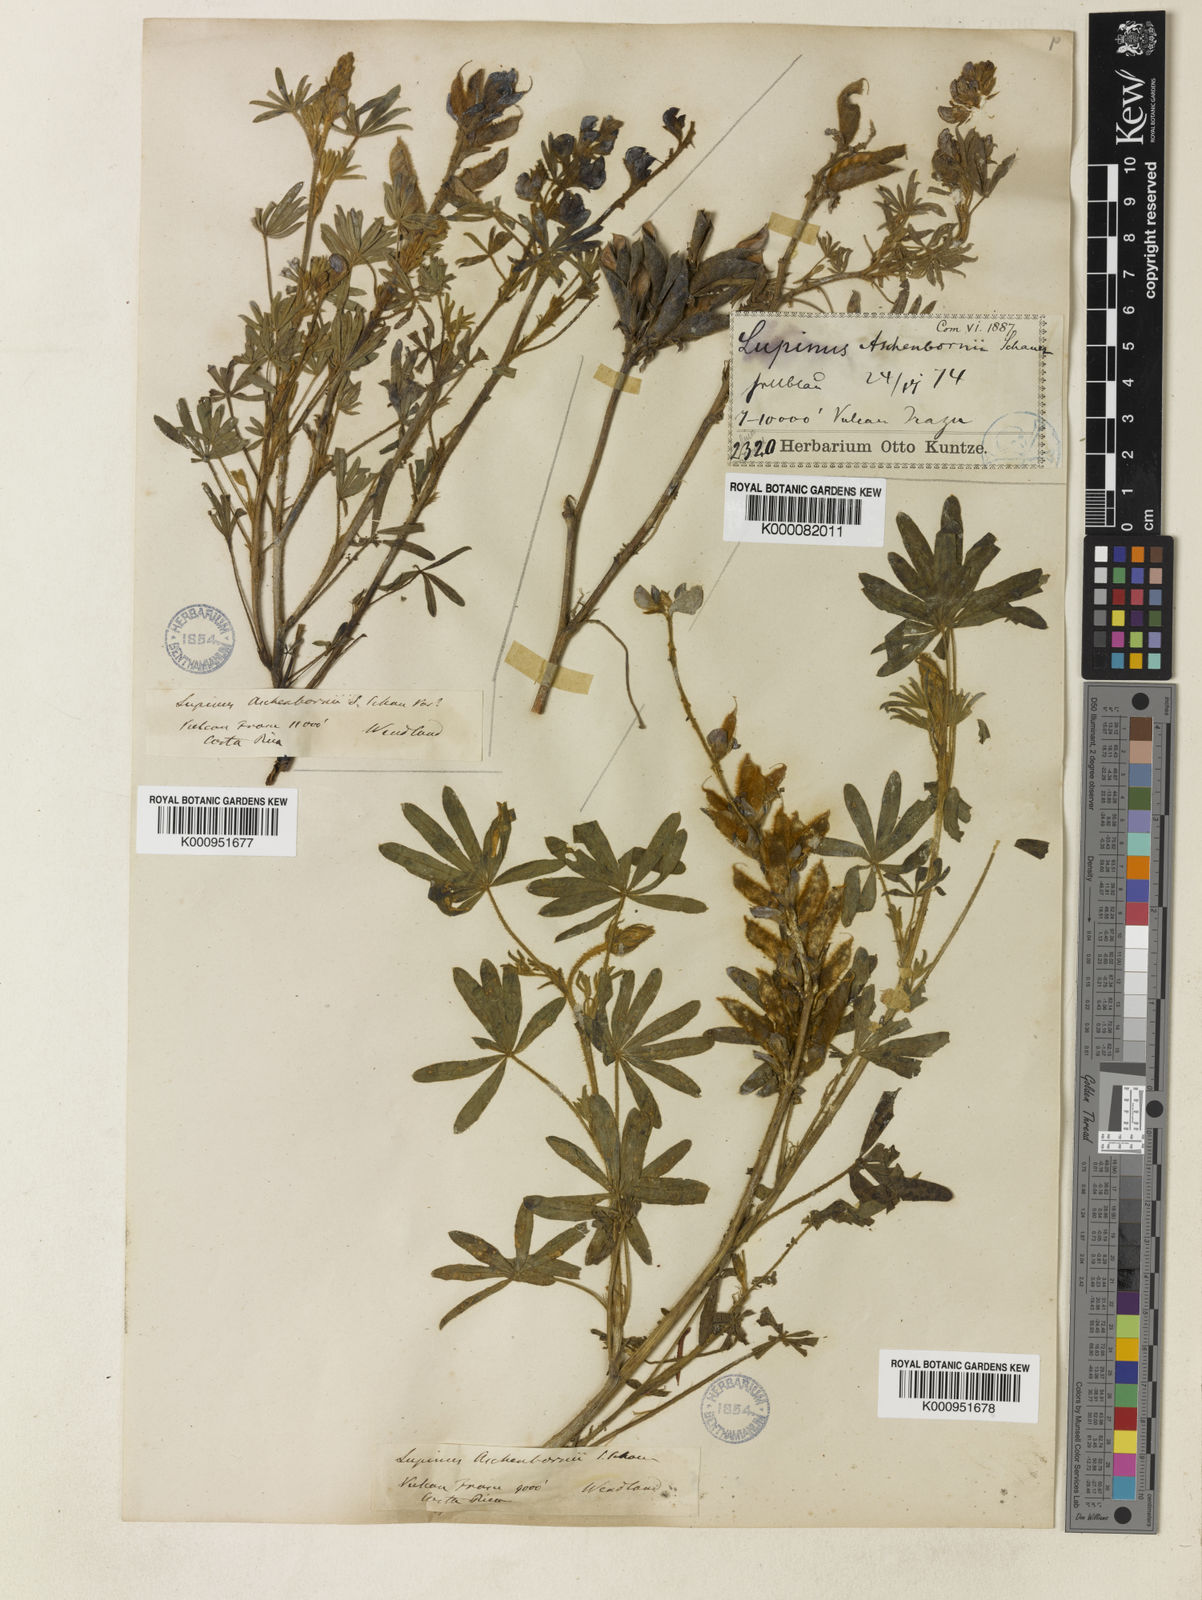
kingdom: Plantae
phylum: Tracheophyta
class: Magnoliopsida
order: Fabales
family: Fabaceae
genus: Lupinus
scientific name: Lupinus aschenbornii
